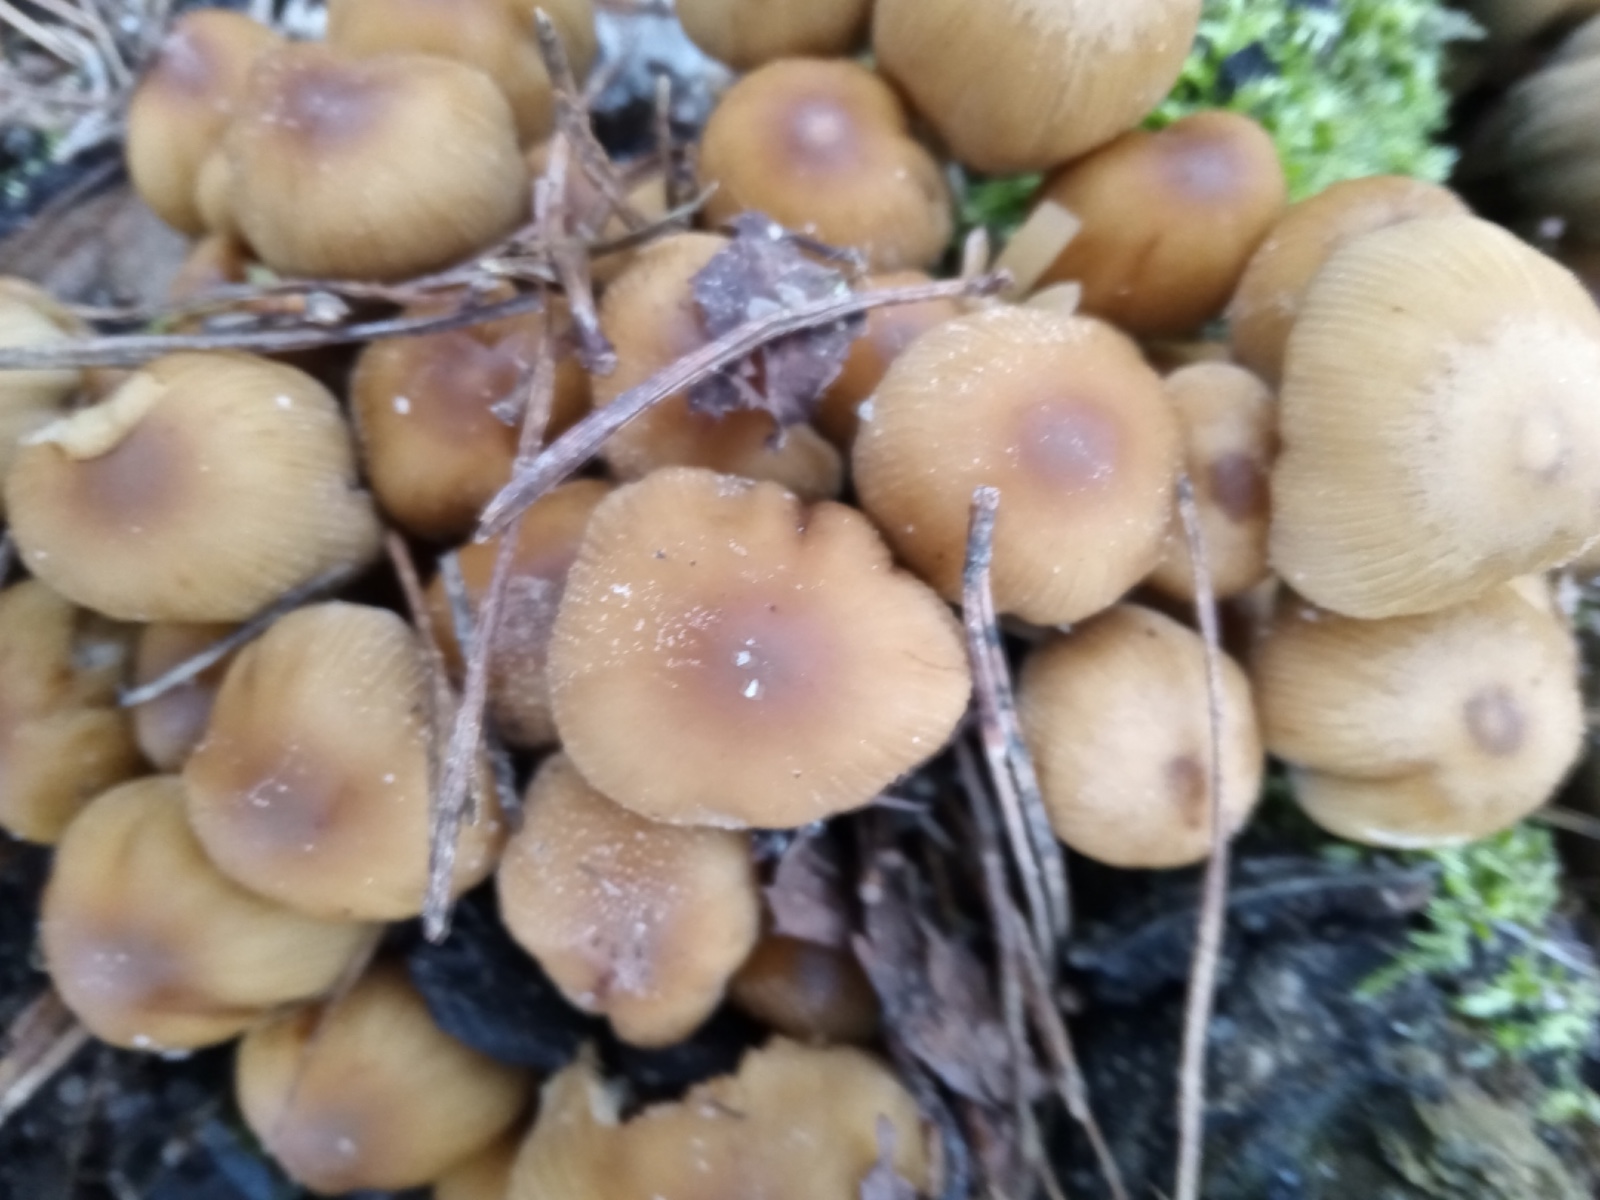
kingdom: Fungi
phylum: Basidiomycota
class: Agaricomycetes
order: Agaricales
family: Psathyrellaceae
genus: Coprinellus
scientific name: Coprinellus micaceus
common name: glimmer-blækhat
